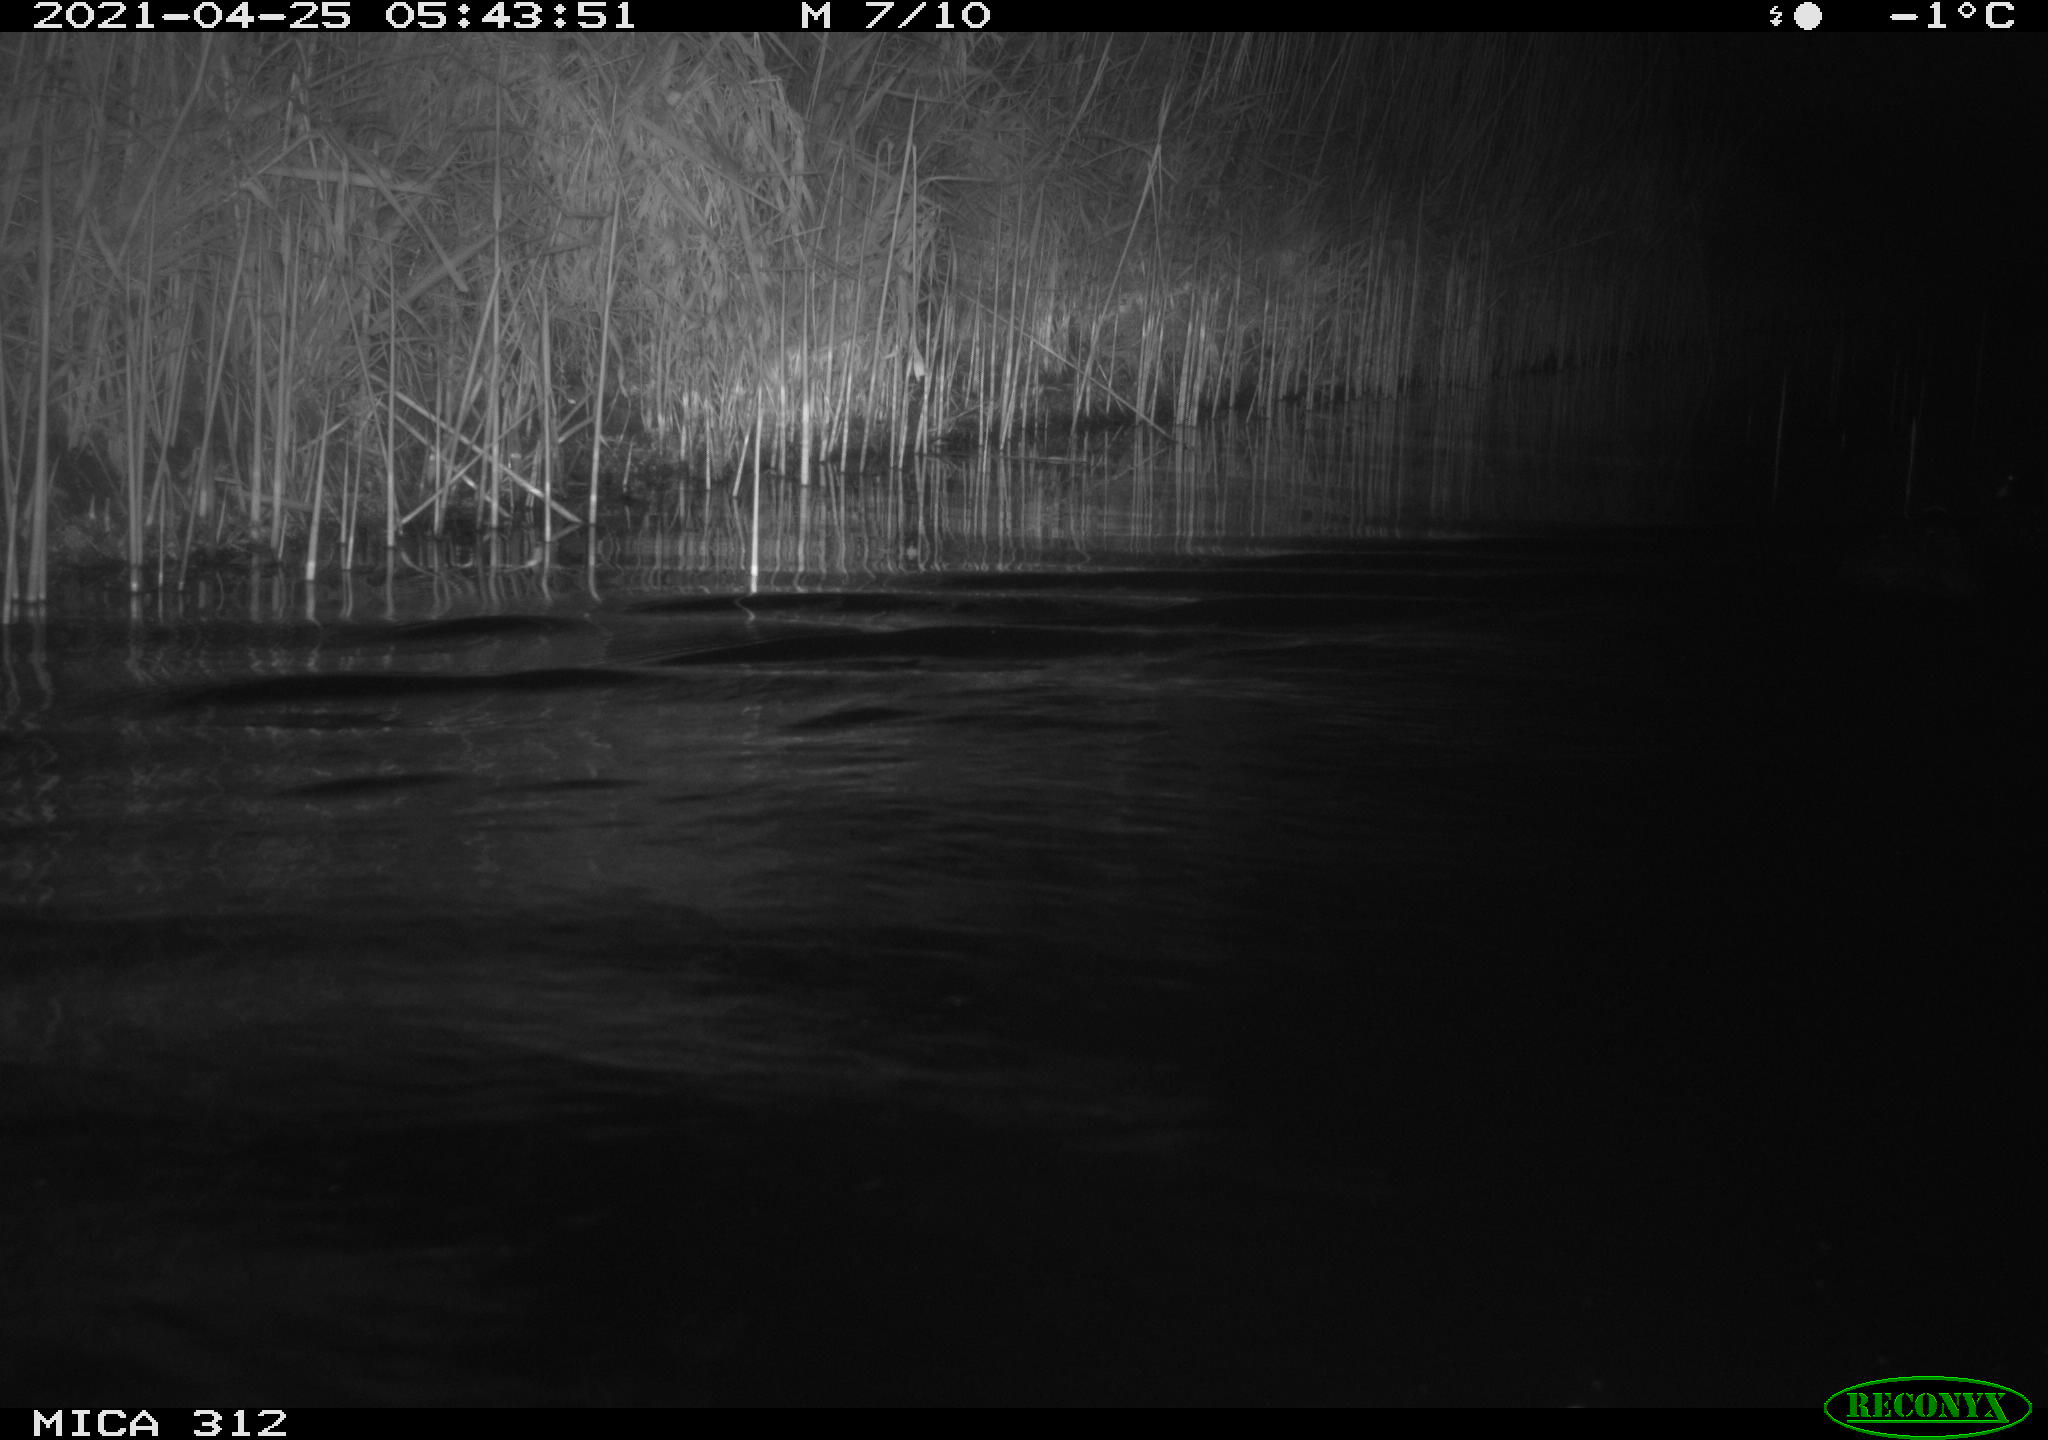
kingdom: Animalia
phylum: Chordata
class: Aves
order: Gruiformes
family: Rallidae
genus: Fulica
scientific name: Fulica atra
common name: Eurasian coot
